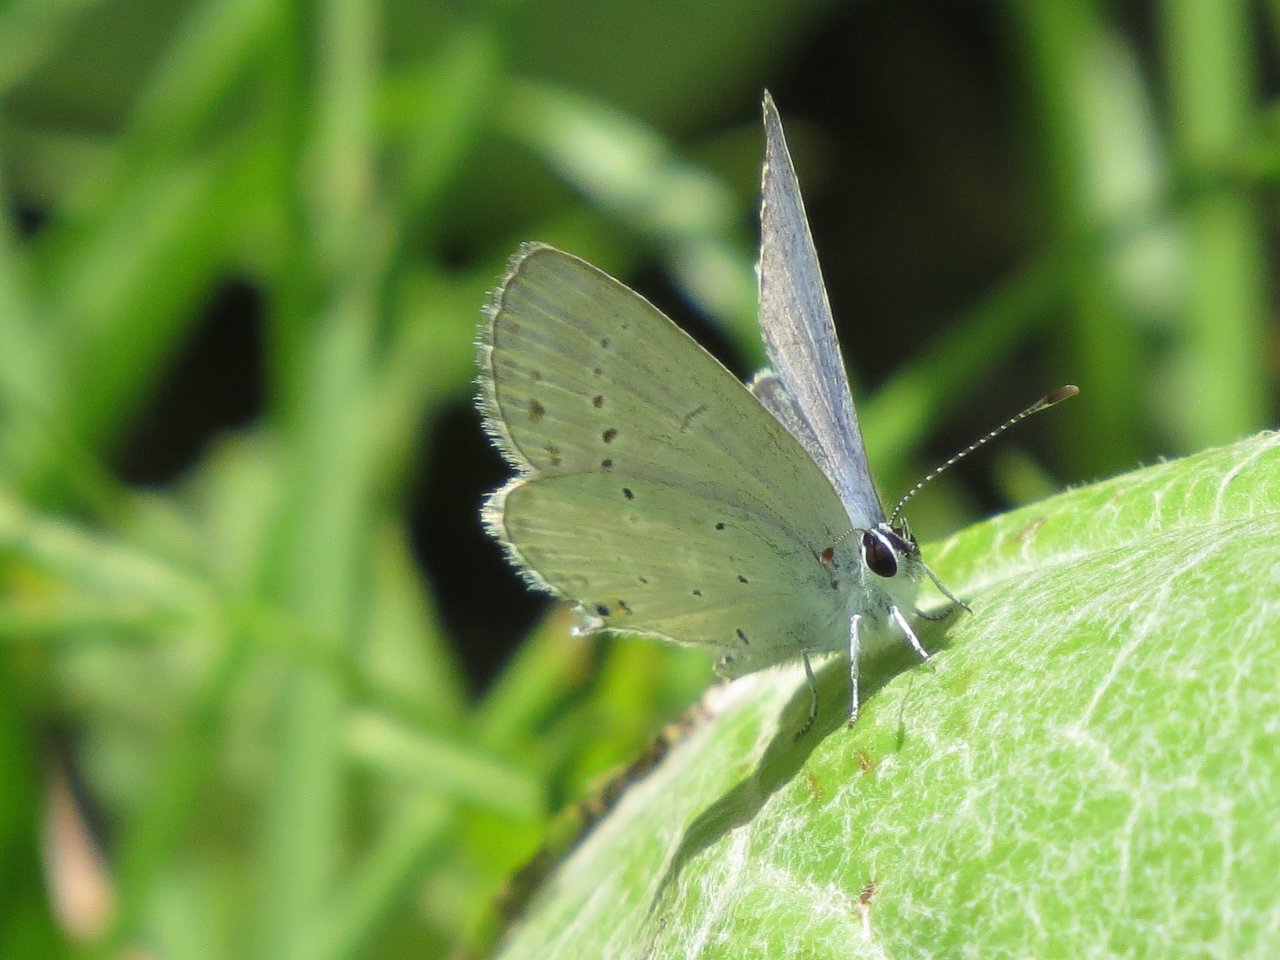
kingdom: Animalia
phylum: Arthropoda
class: Insecta
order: Lepidoptera
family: Lycaenidae
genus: Elkalyce
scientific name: Elkalyce amyntula
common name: Western Tailed-Blue
